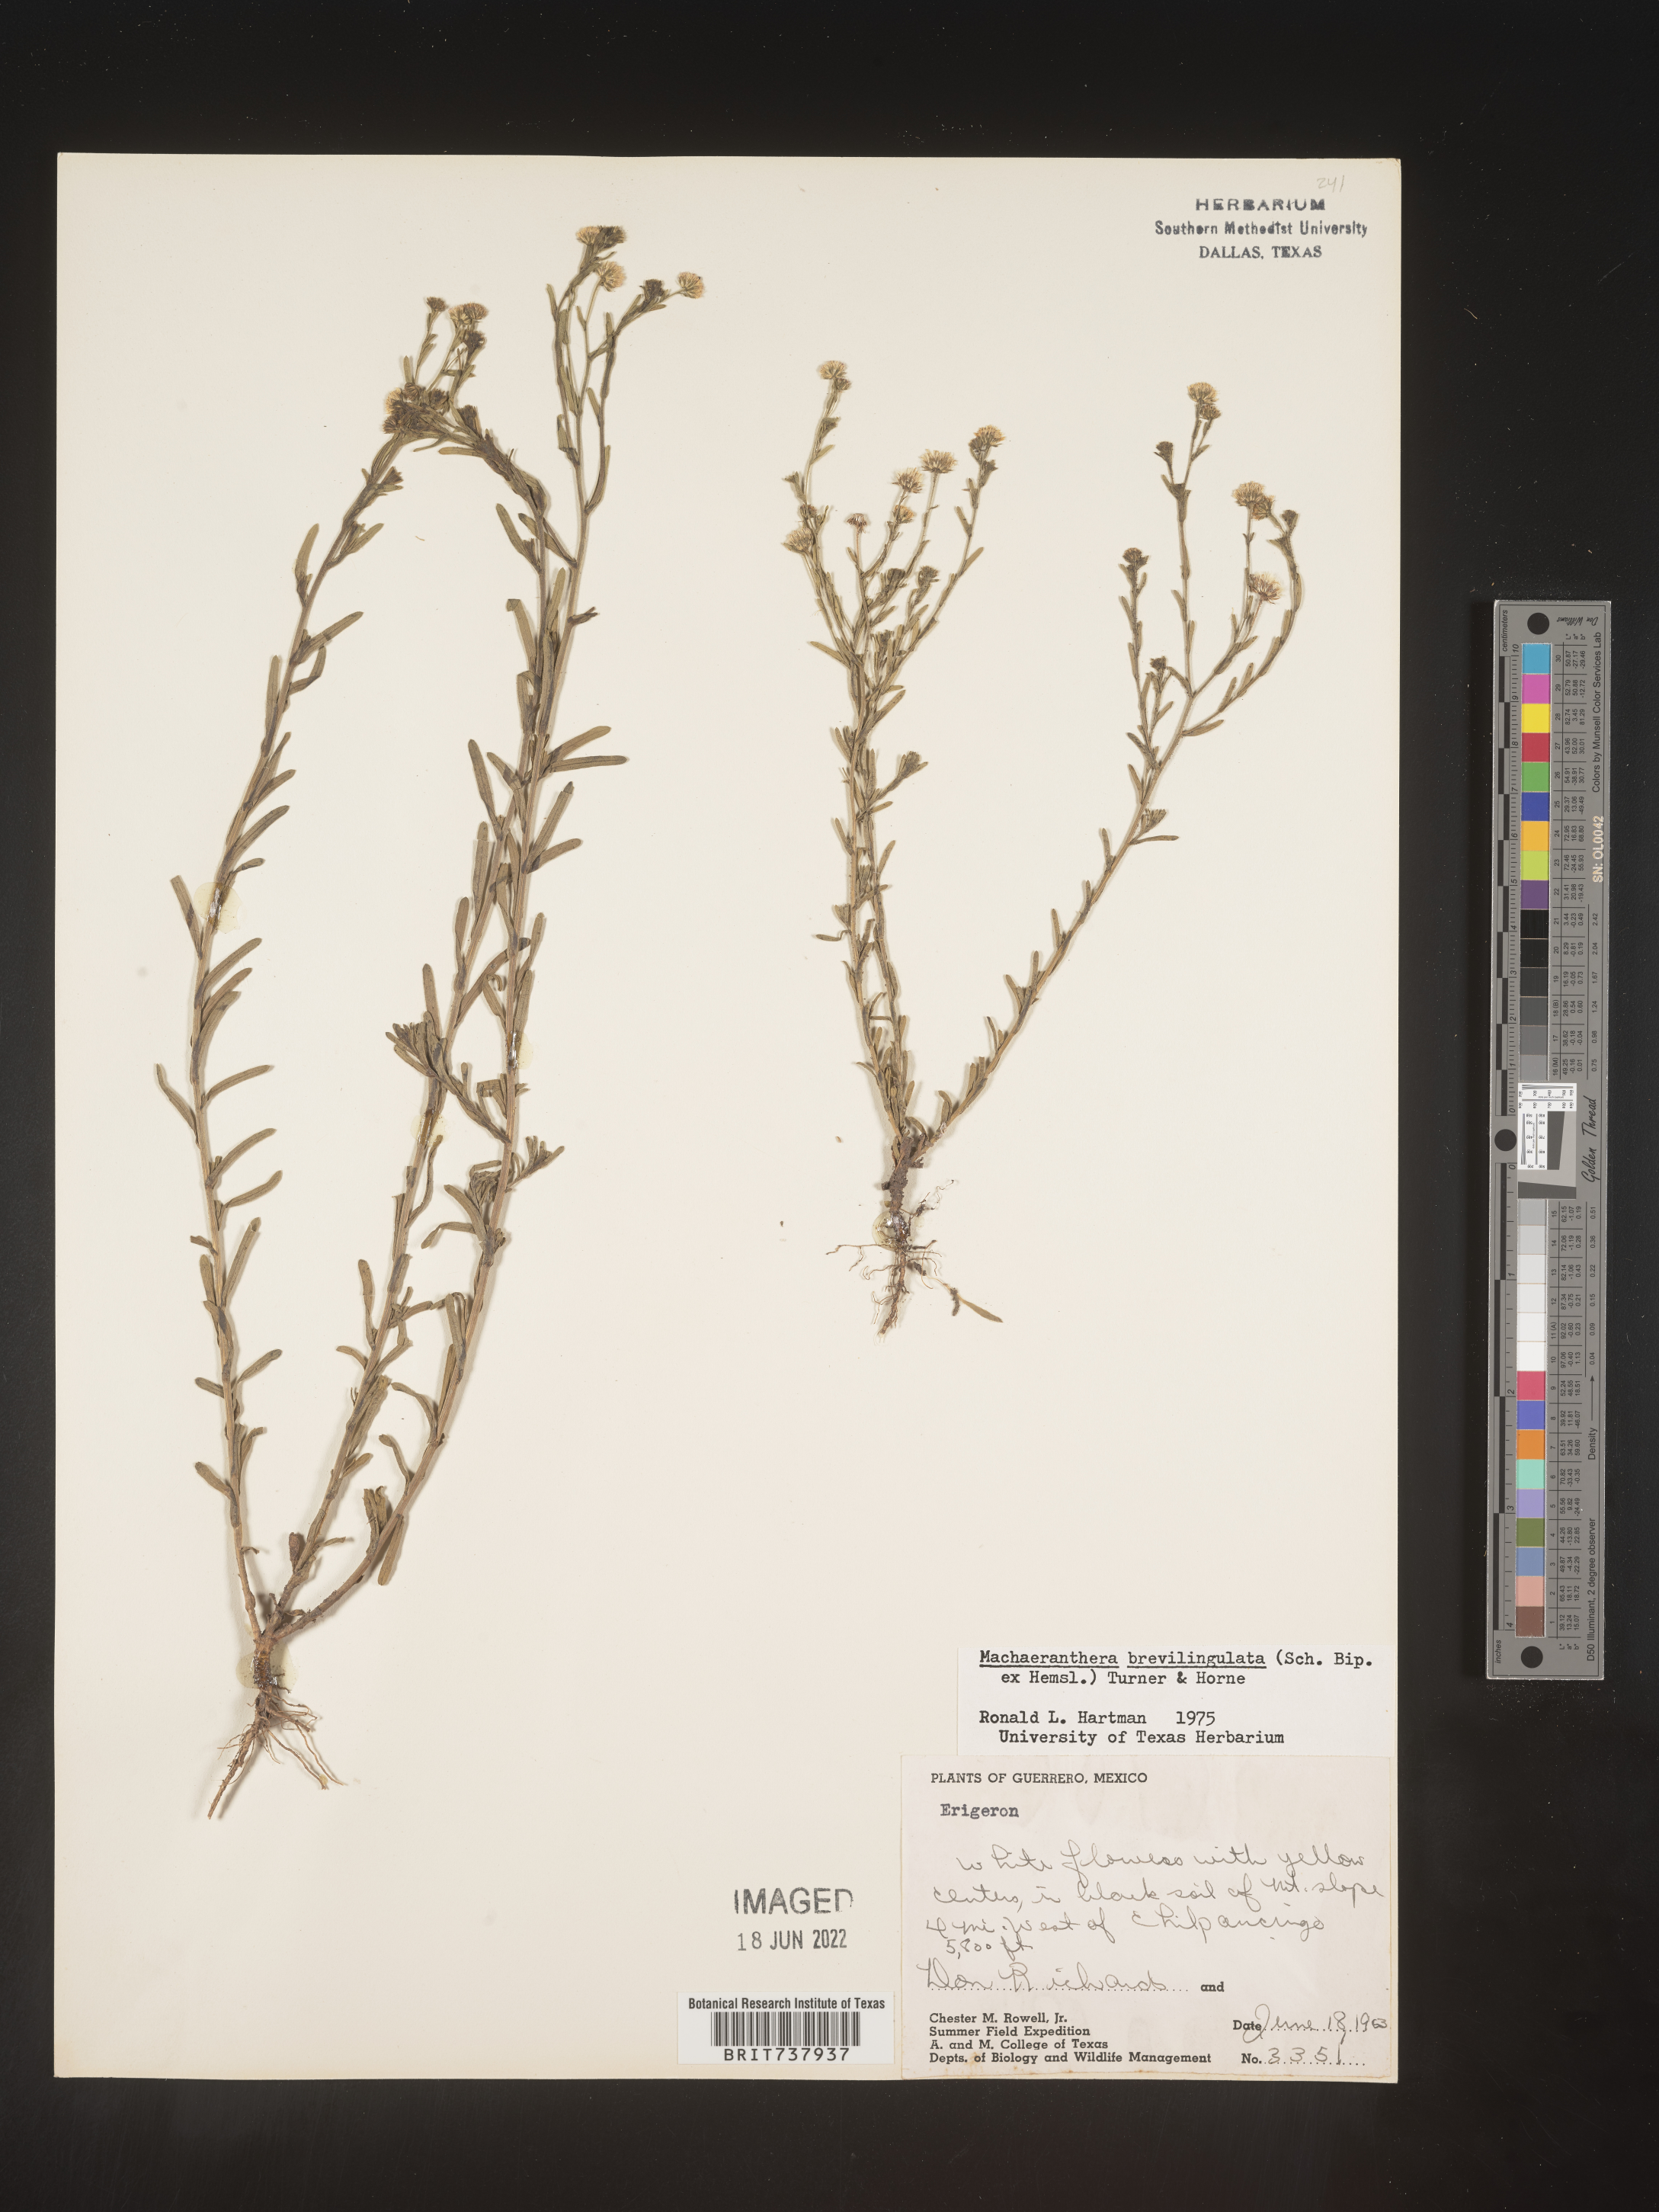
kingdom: Plantae
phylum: Tracheophyta
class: Magnoliopsida
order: Asterales
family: Asteraceae
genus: Psilactis
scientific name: Psilactis brevilingulata
